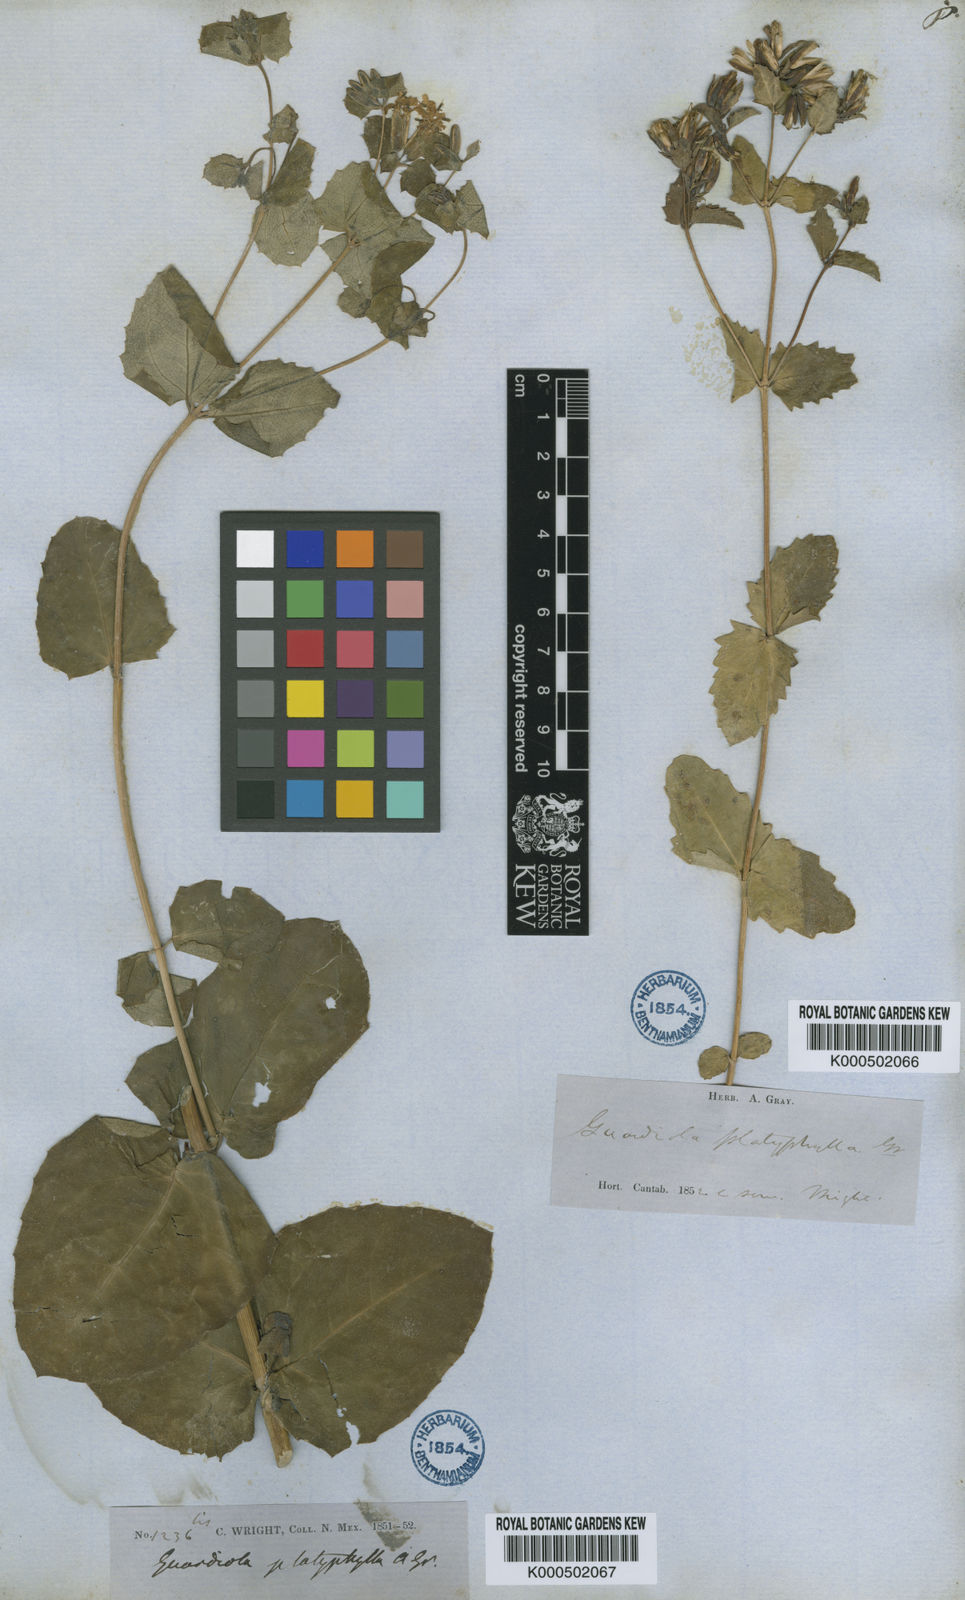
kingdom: Plantae
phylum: Tracheophyta
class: Magnoliopsida
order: Asterales
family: Asteraceae
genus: Guardiola
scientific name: Guardiola platyphylla
